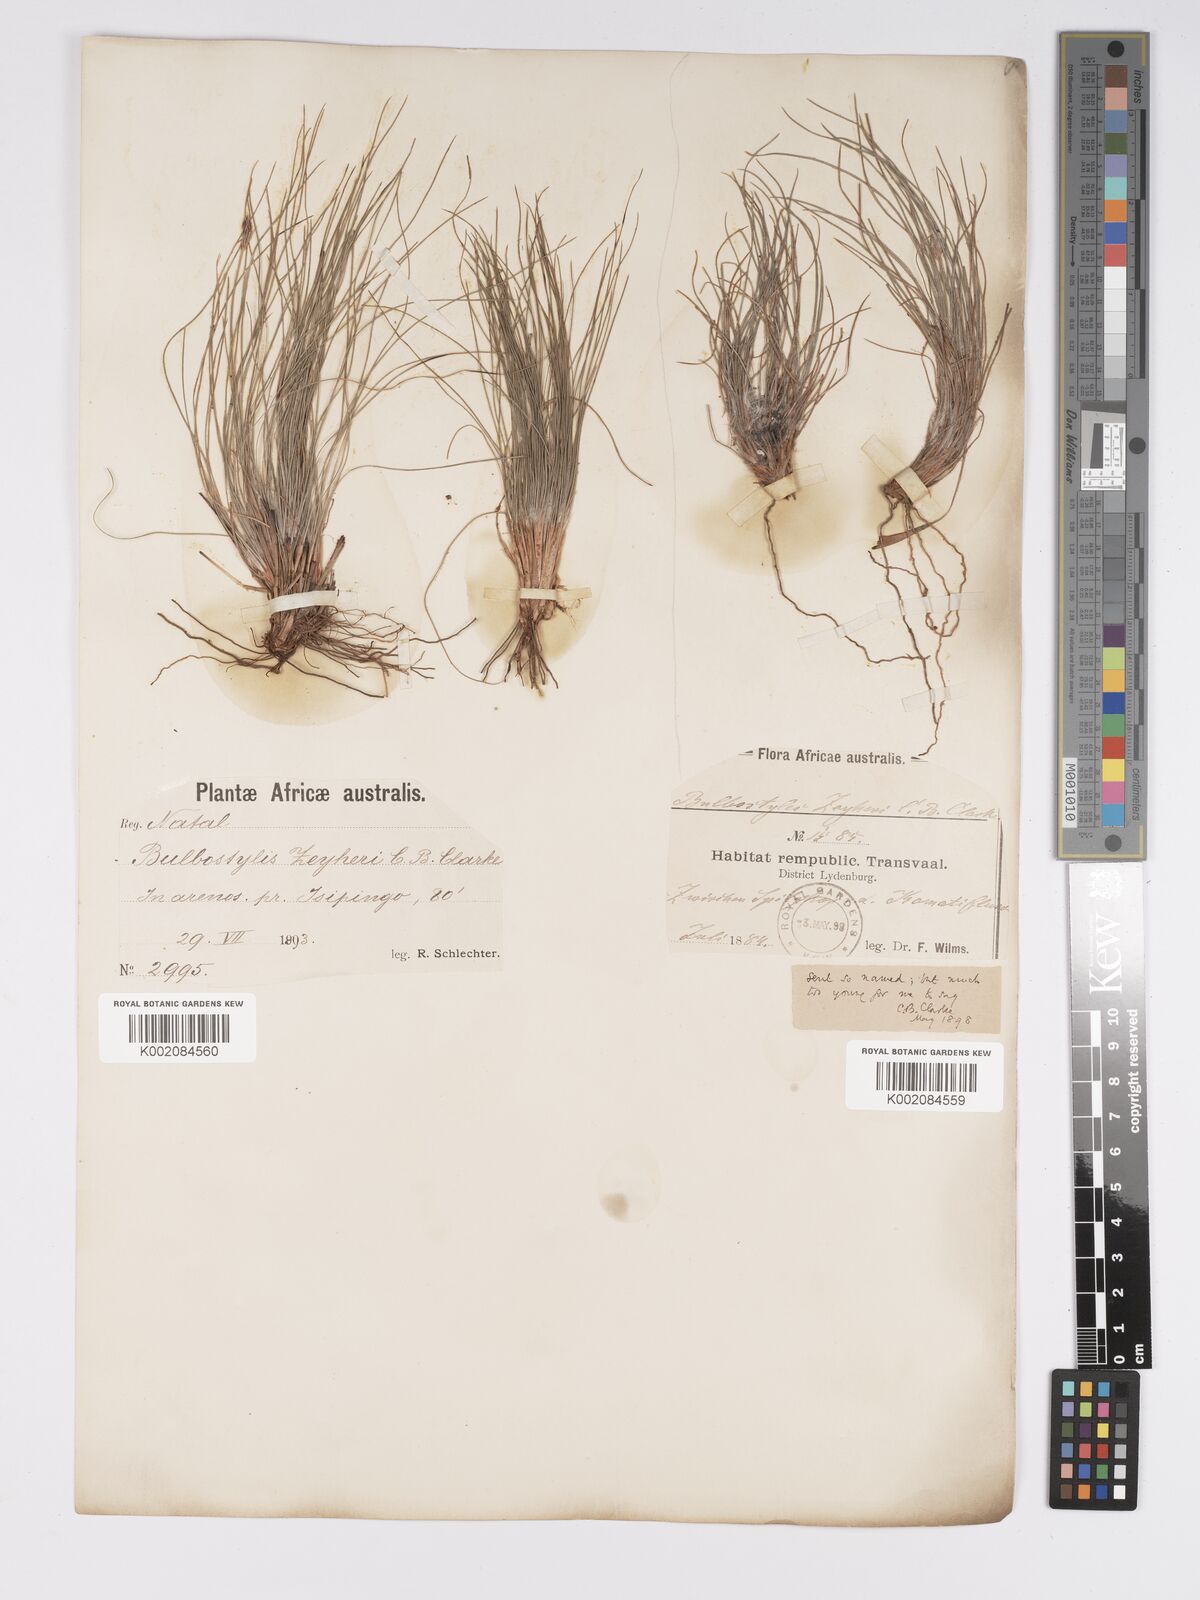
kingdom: Plantae
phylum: Tracheophyta
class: Liliopsida
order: Poales
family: Cyperaceae
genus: Bulbostylis
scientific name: Bulbostylis contexta
